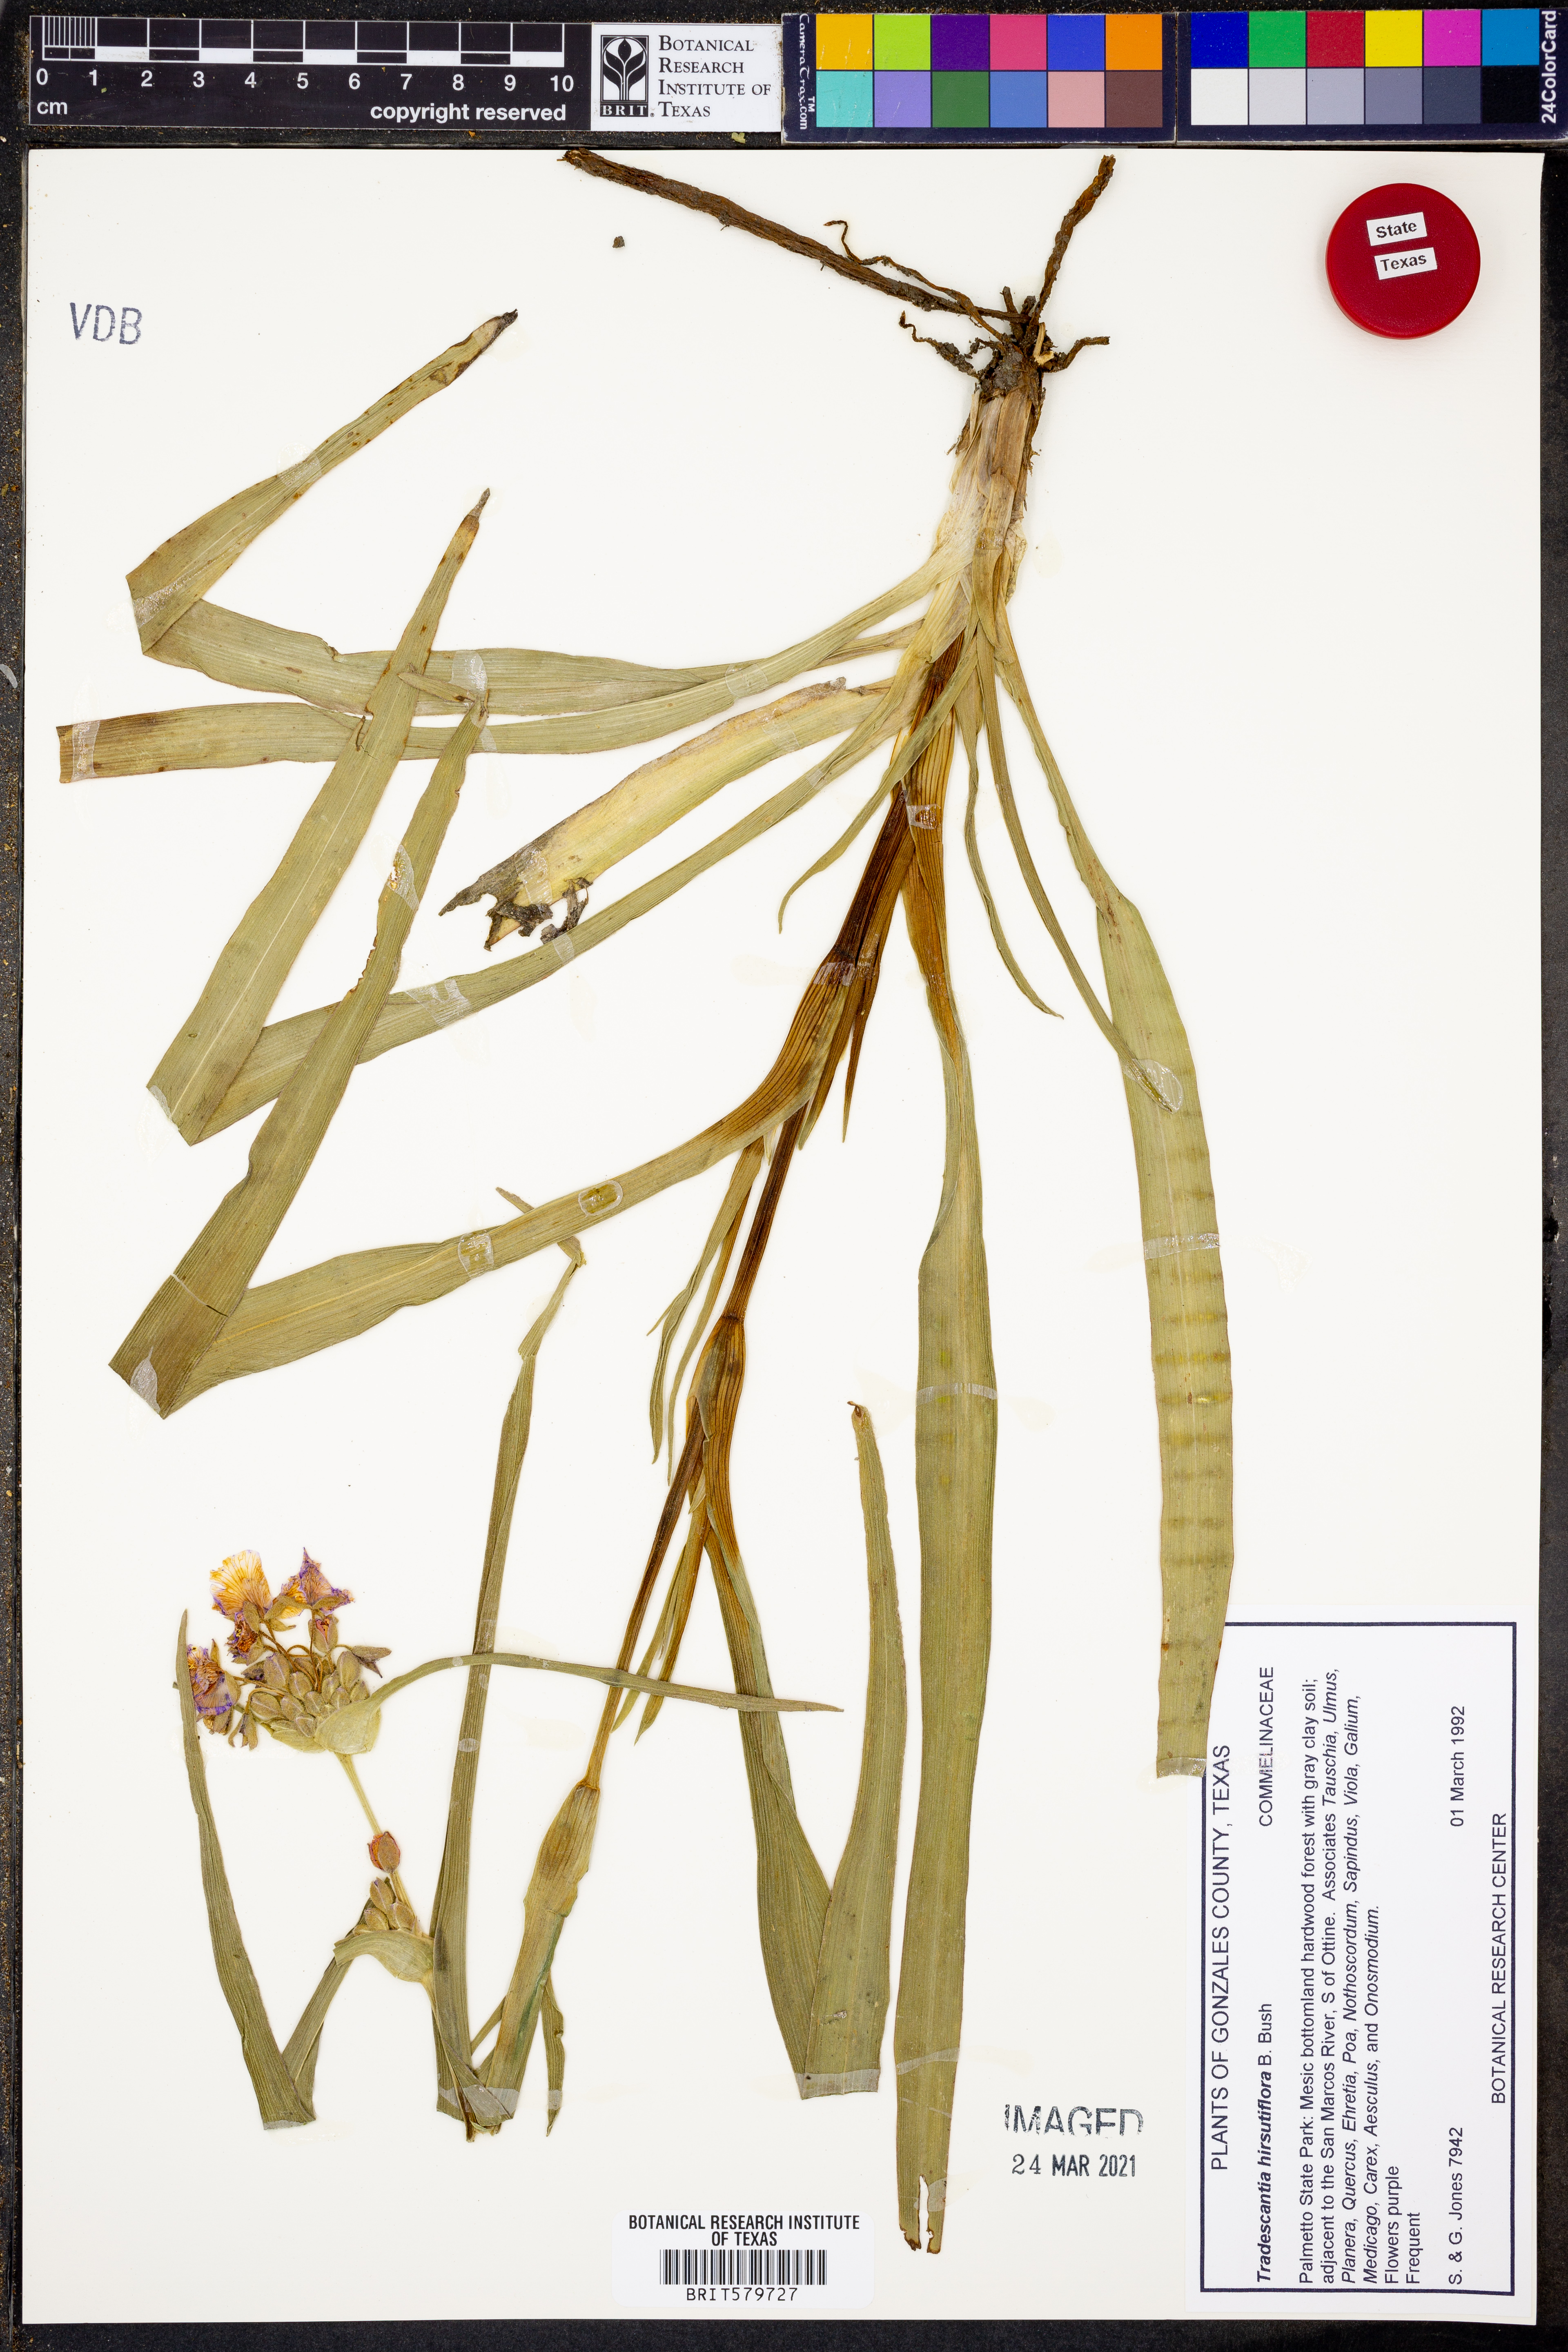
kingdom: Plantae
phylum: Tracheophyta
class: Liliopsida
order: Commelinales
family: Commelinaceae
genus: Tradescantia
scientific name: Tradescantia hirsutiflora
